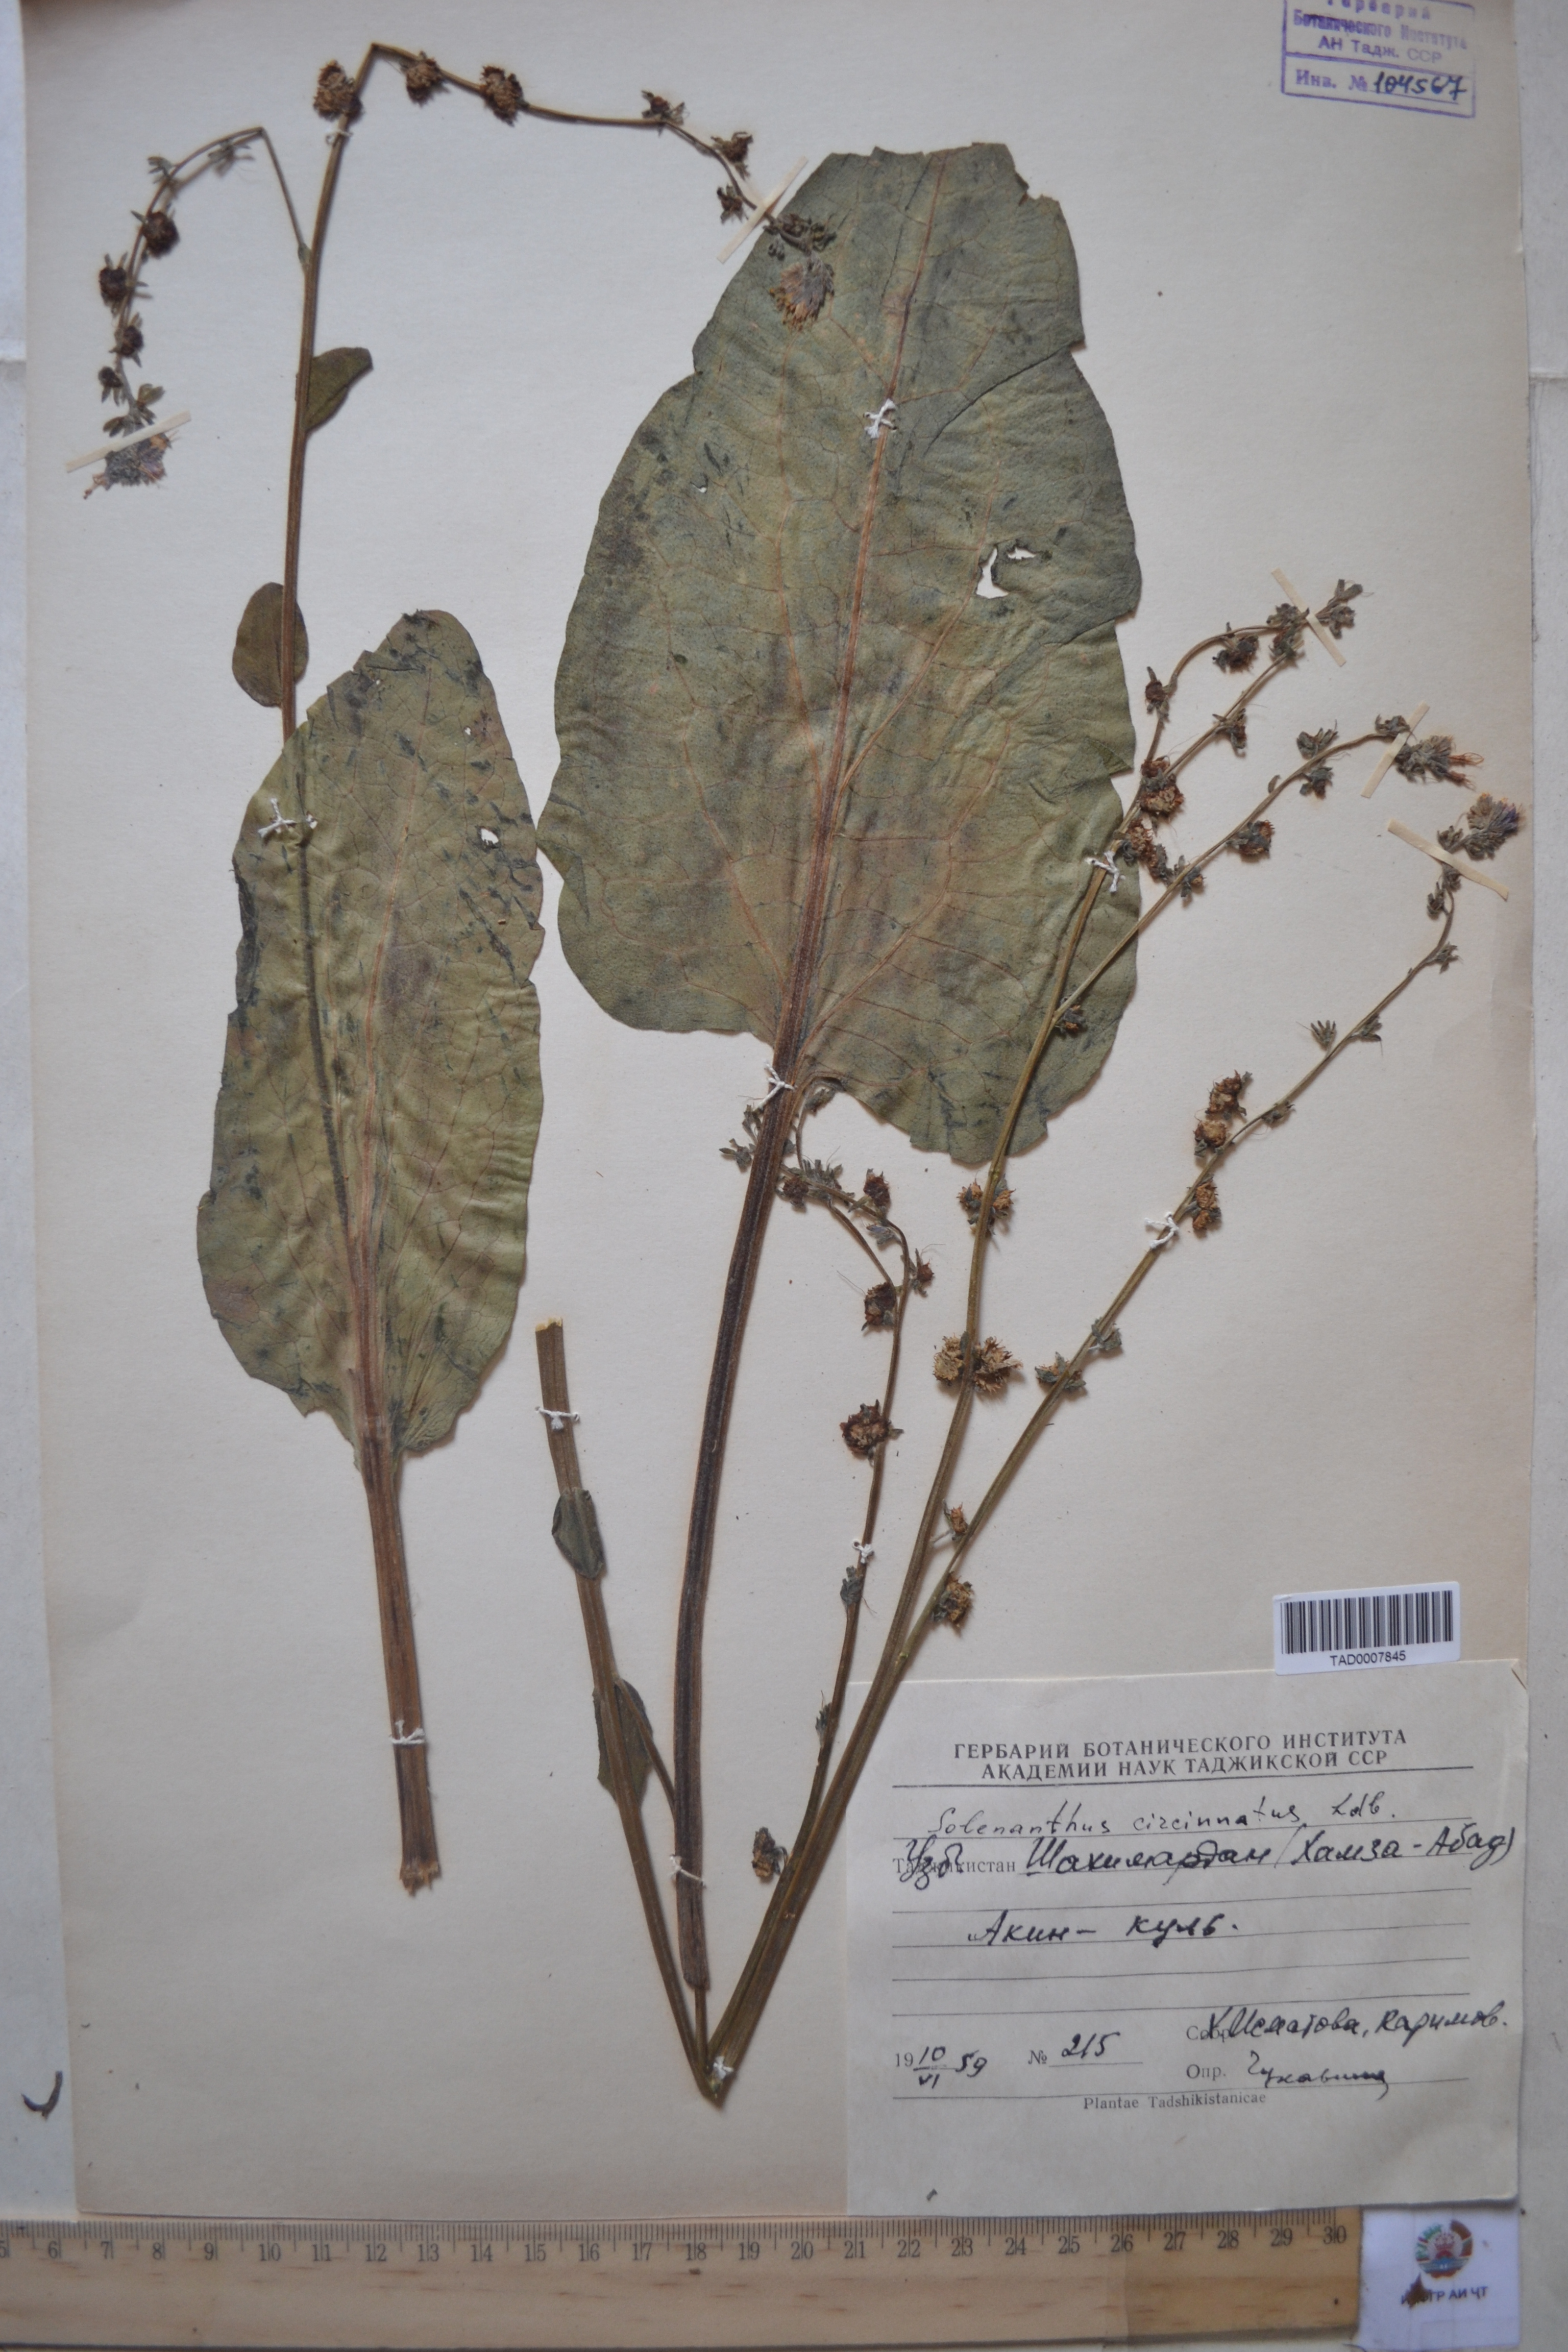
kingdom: Plantae
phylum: Tracheophyta
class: Magnoliopsida
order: Boraginales
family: Boraginaceae
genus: Solenanthus
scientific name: Solenanthus circinnatus
